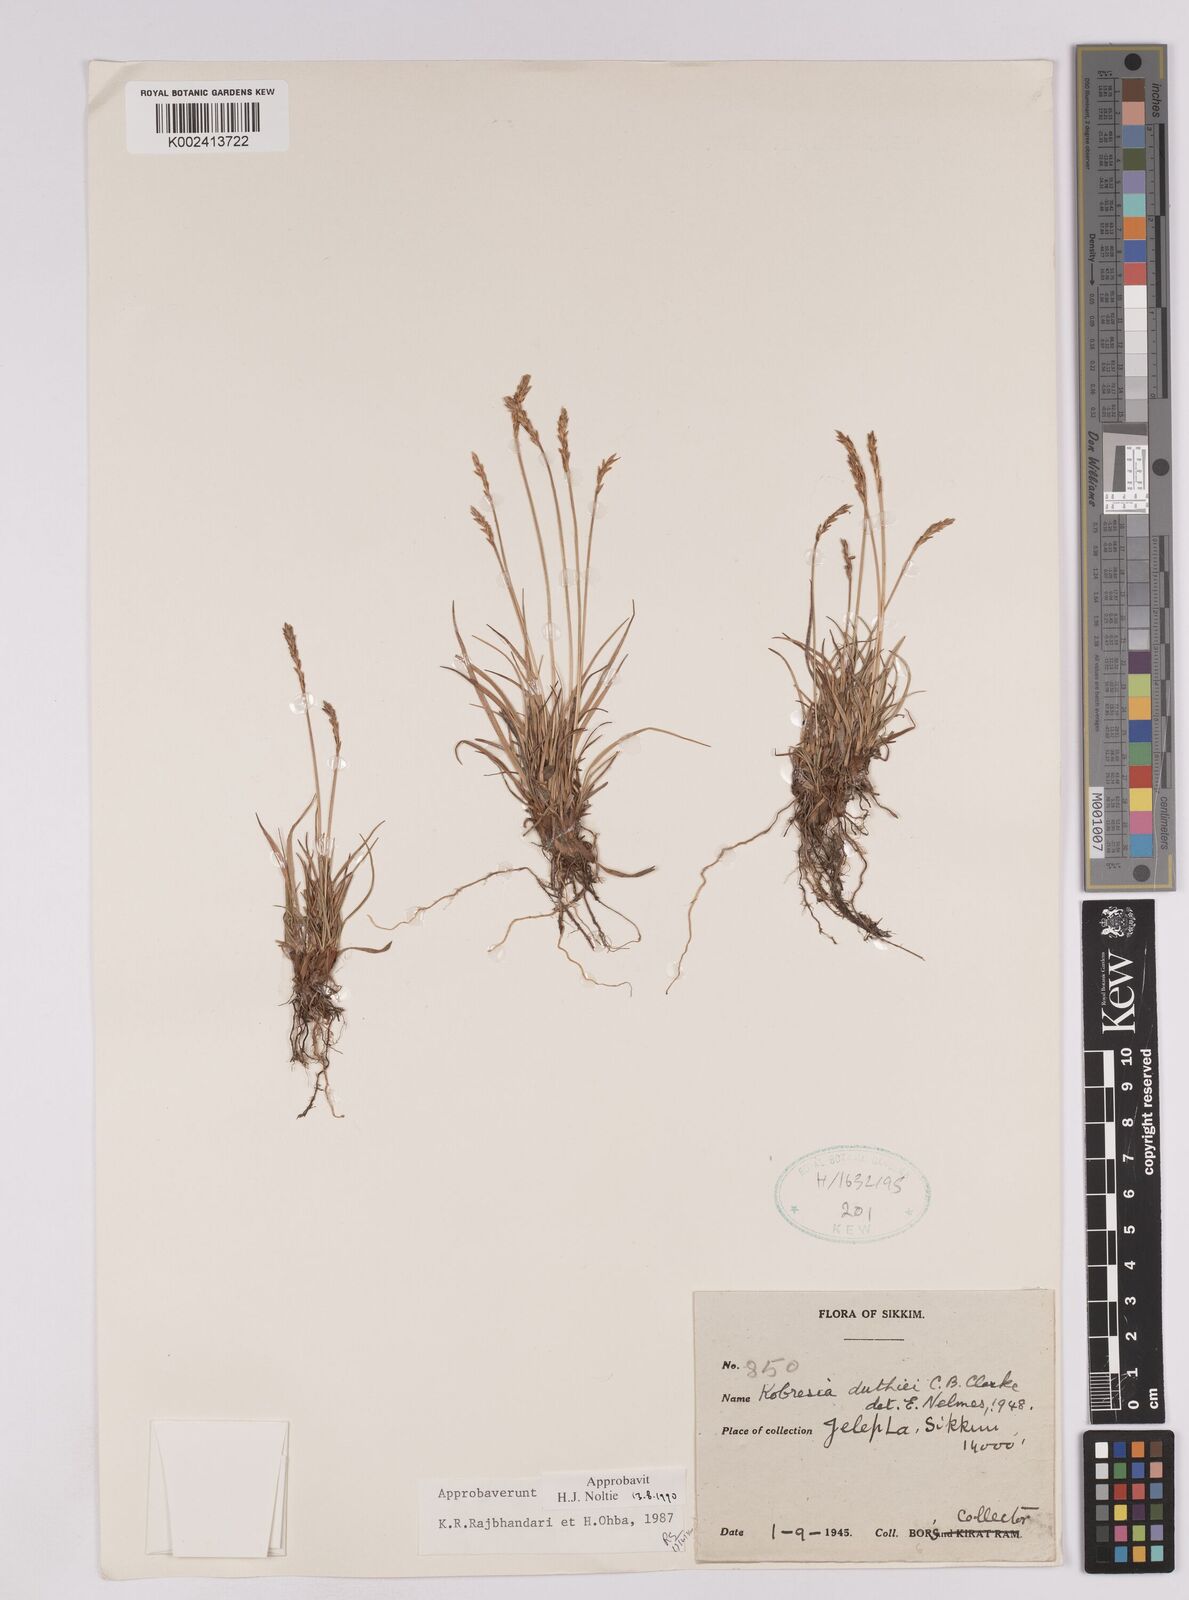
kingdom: Plantae
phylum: Tracheophyta
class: Liliopsida
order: Poales
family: Cyperaceae
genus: Carex
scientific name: Carex clavispica
